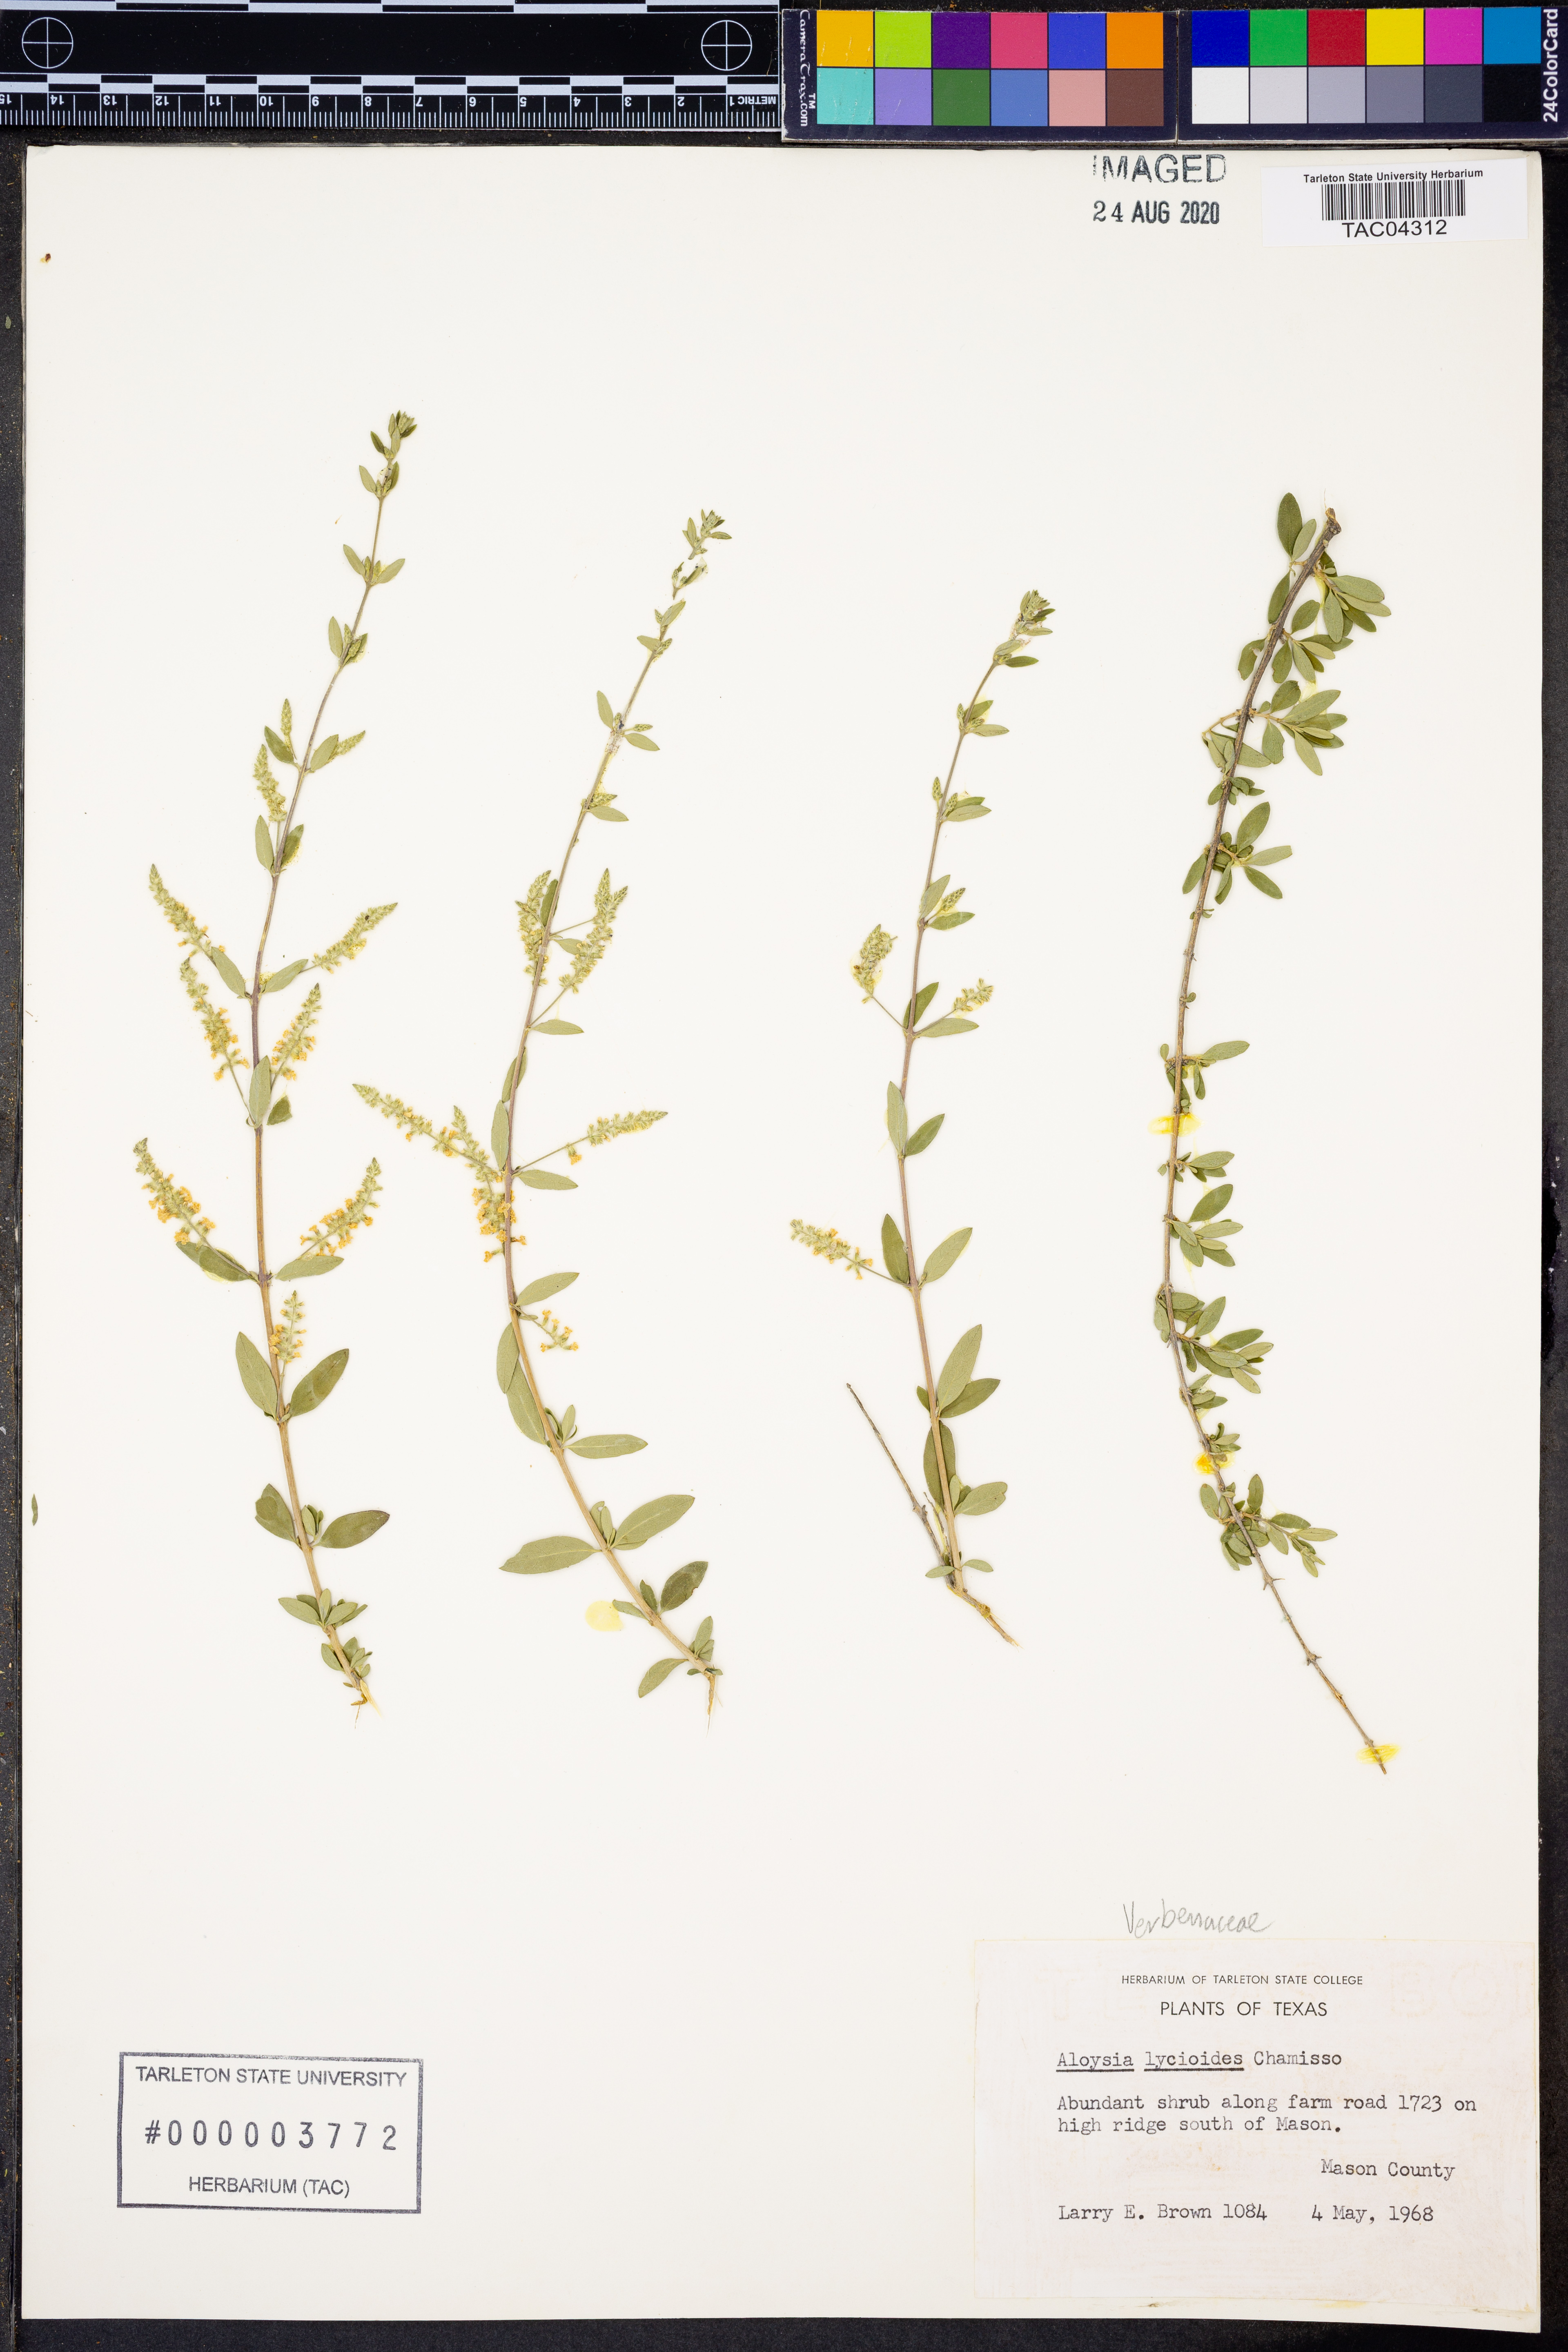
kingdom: Plantae
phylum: Tracheophyta
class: Magnoliopsida
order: Lamiales
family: Verbenaceae
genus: Aloysia
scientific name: Aloysia gratissima
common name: Common bee-brush
